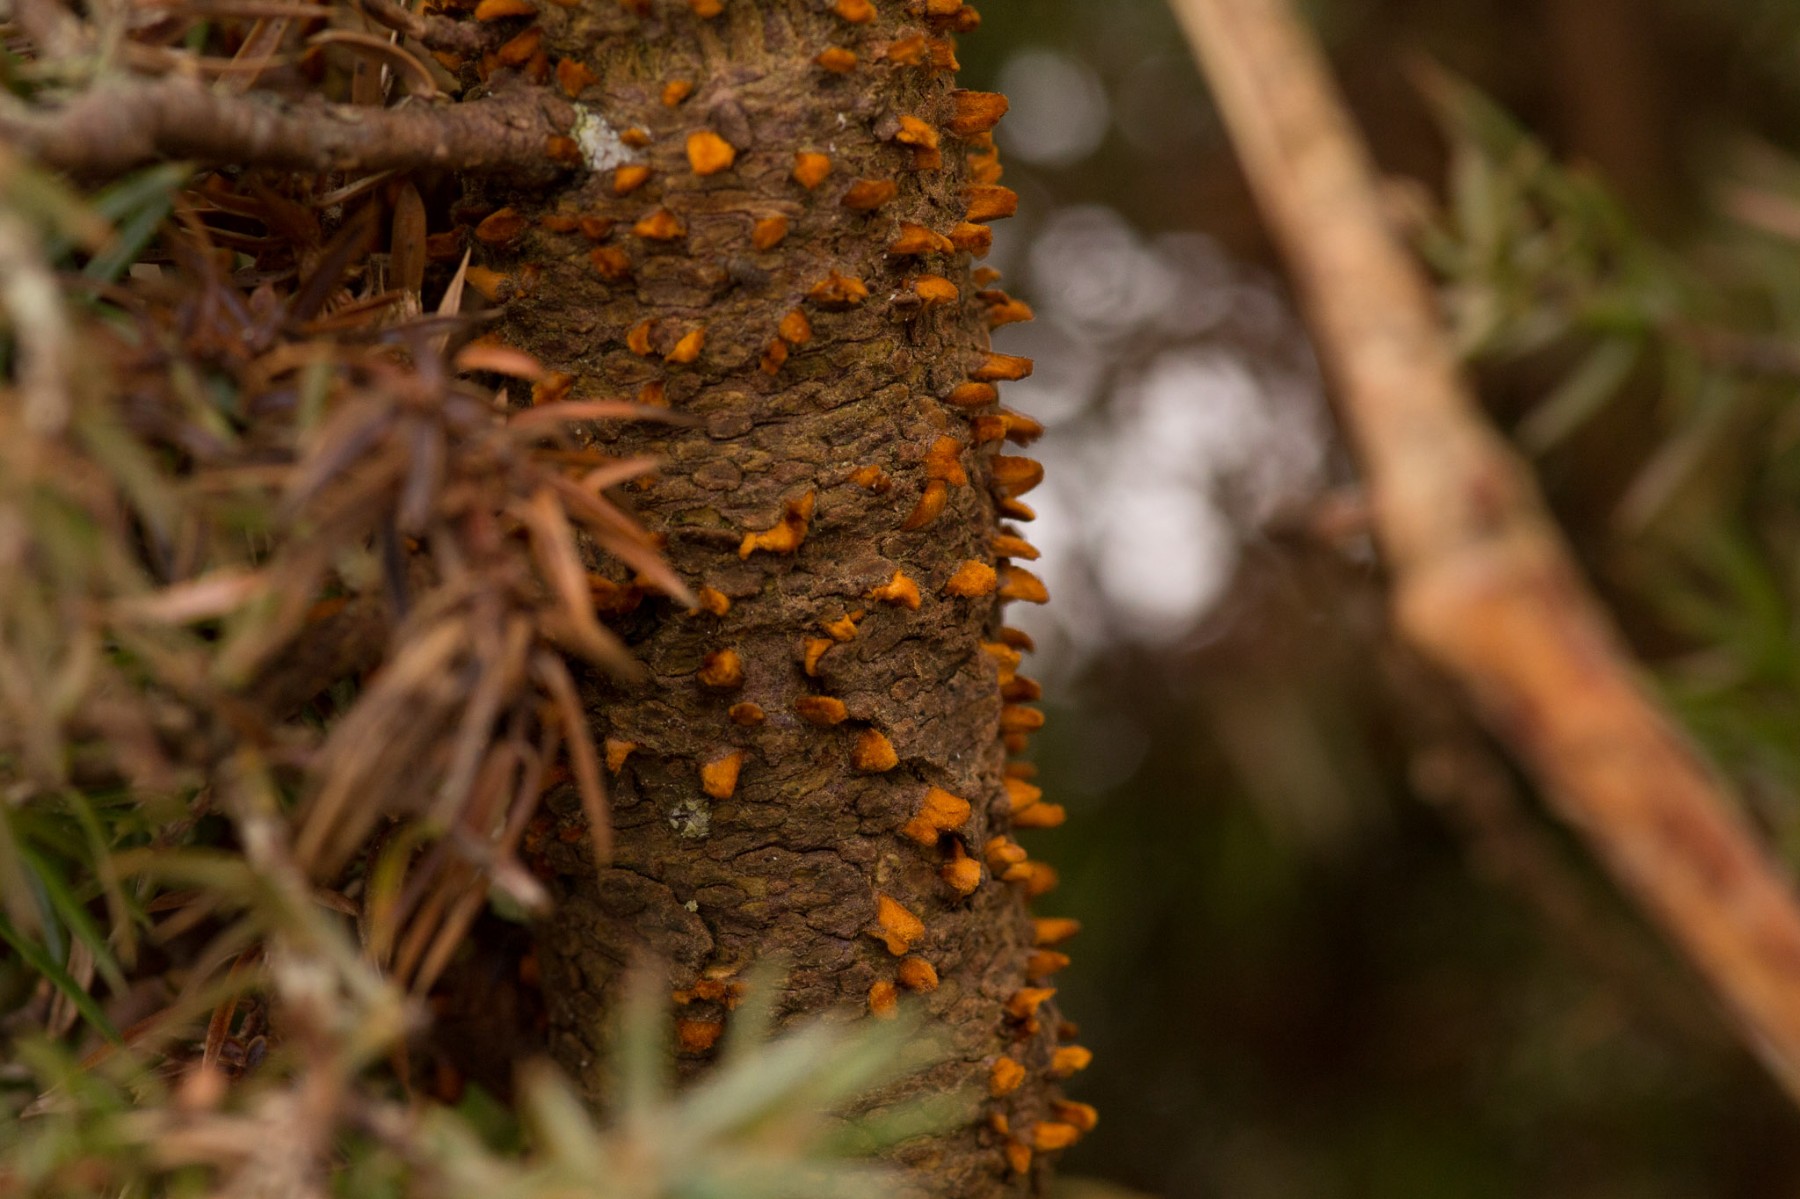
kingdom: Fungi
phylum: Basidiomycota
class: Pucciniomycetes
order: Pucciniales
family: Gymnosporangiaceae
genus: Gymnosporangium
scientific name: Gymnosporangium clavariiforme
